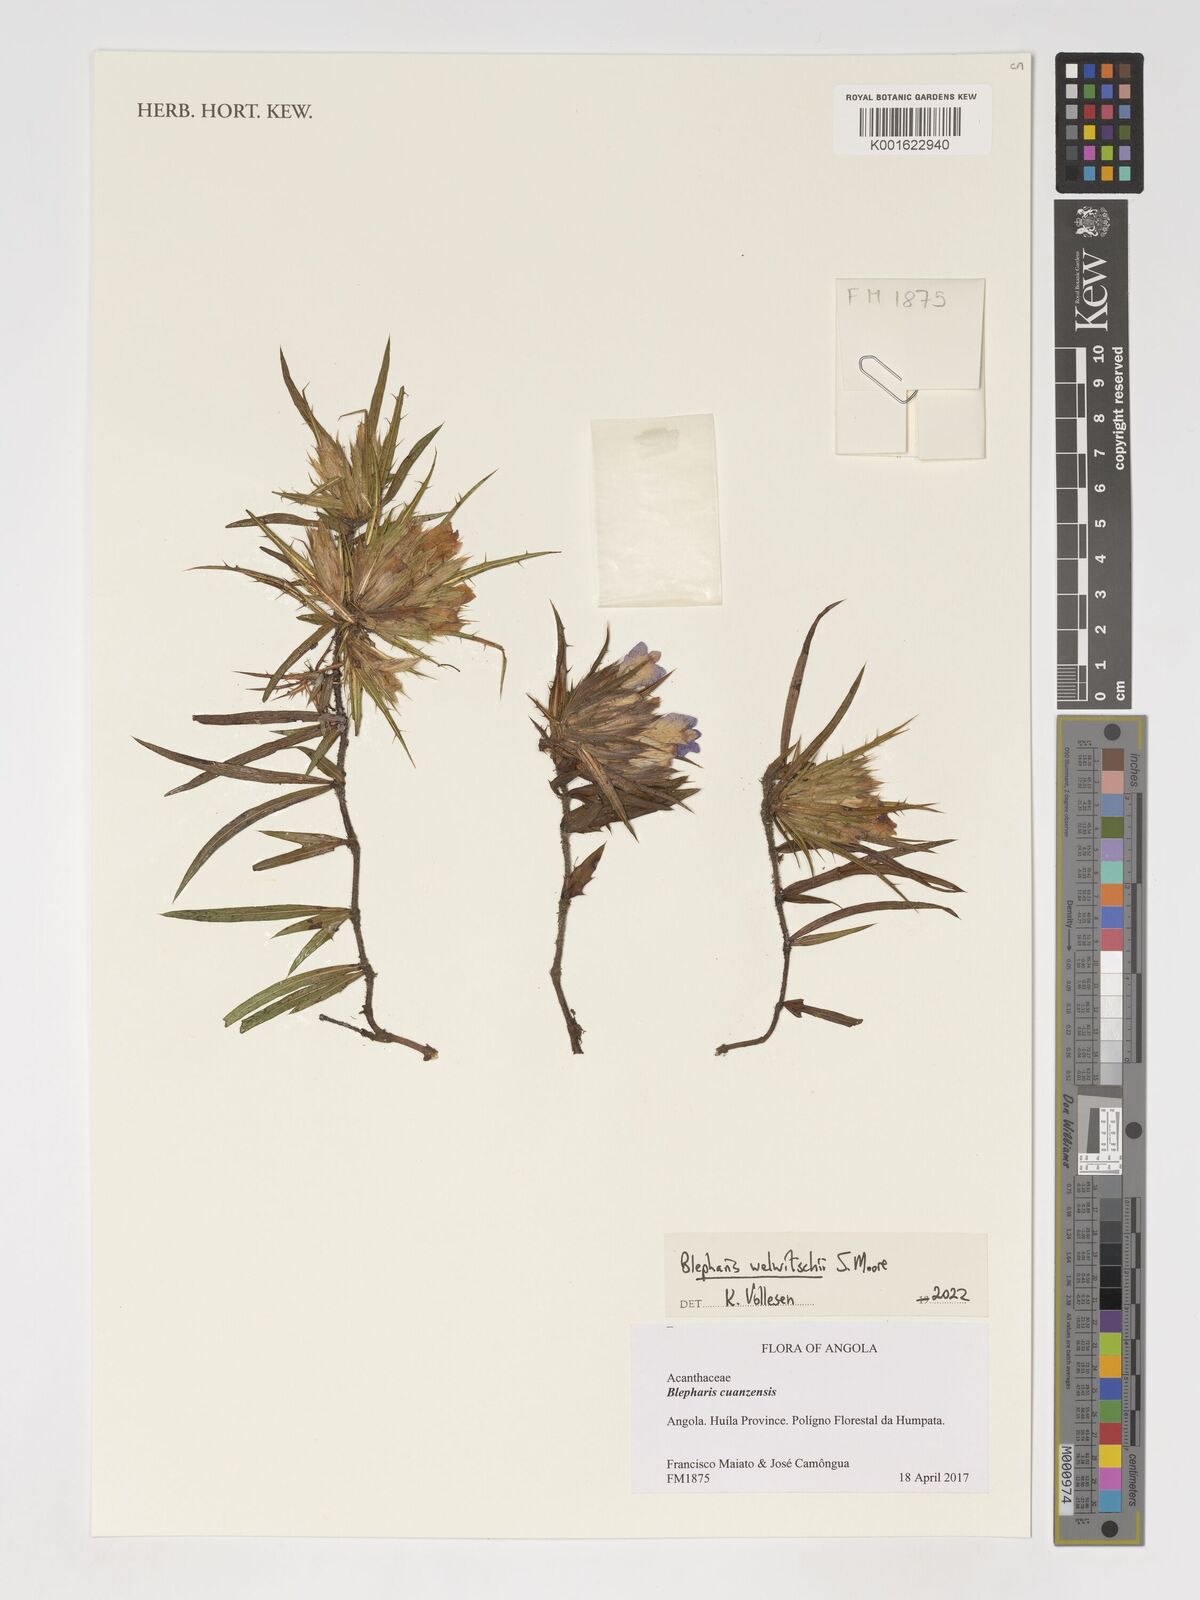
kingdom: Plantae
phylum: Tracheophyta
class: Magnoliopsida
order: Lamiales
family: Acanthaceae
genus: Blepharis
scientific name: Blepharis welwitschii
